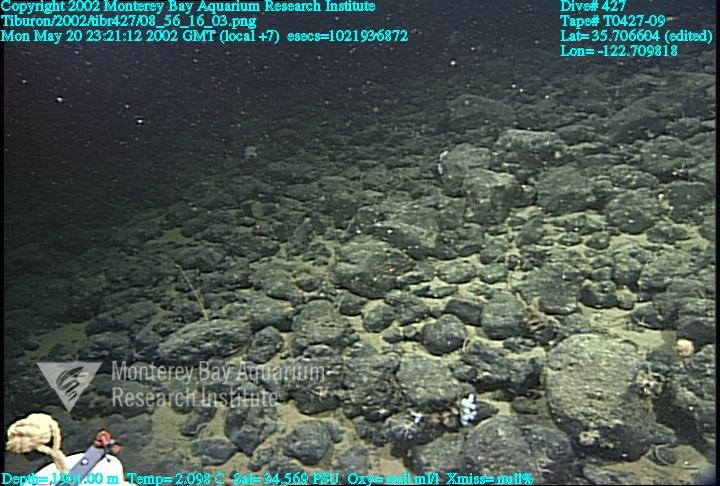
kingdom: Animalia
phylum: Porifera
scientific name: Porifera
